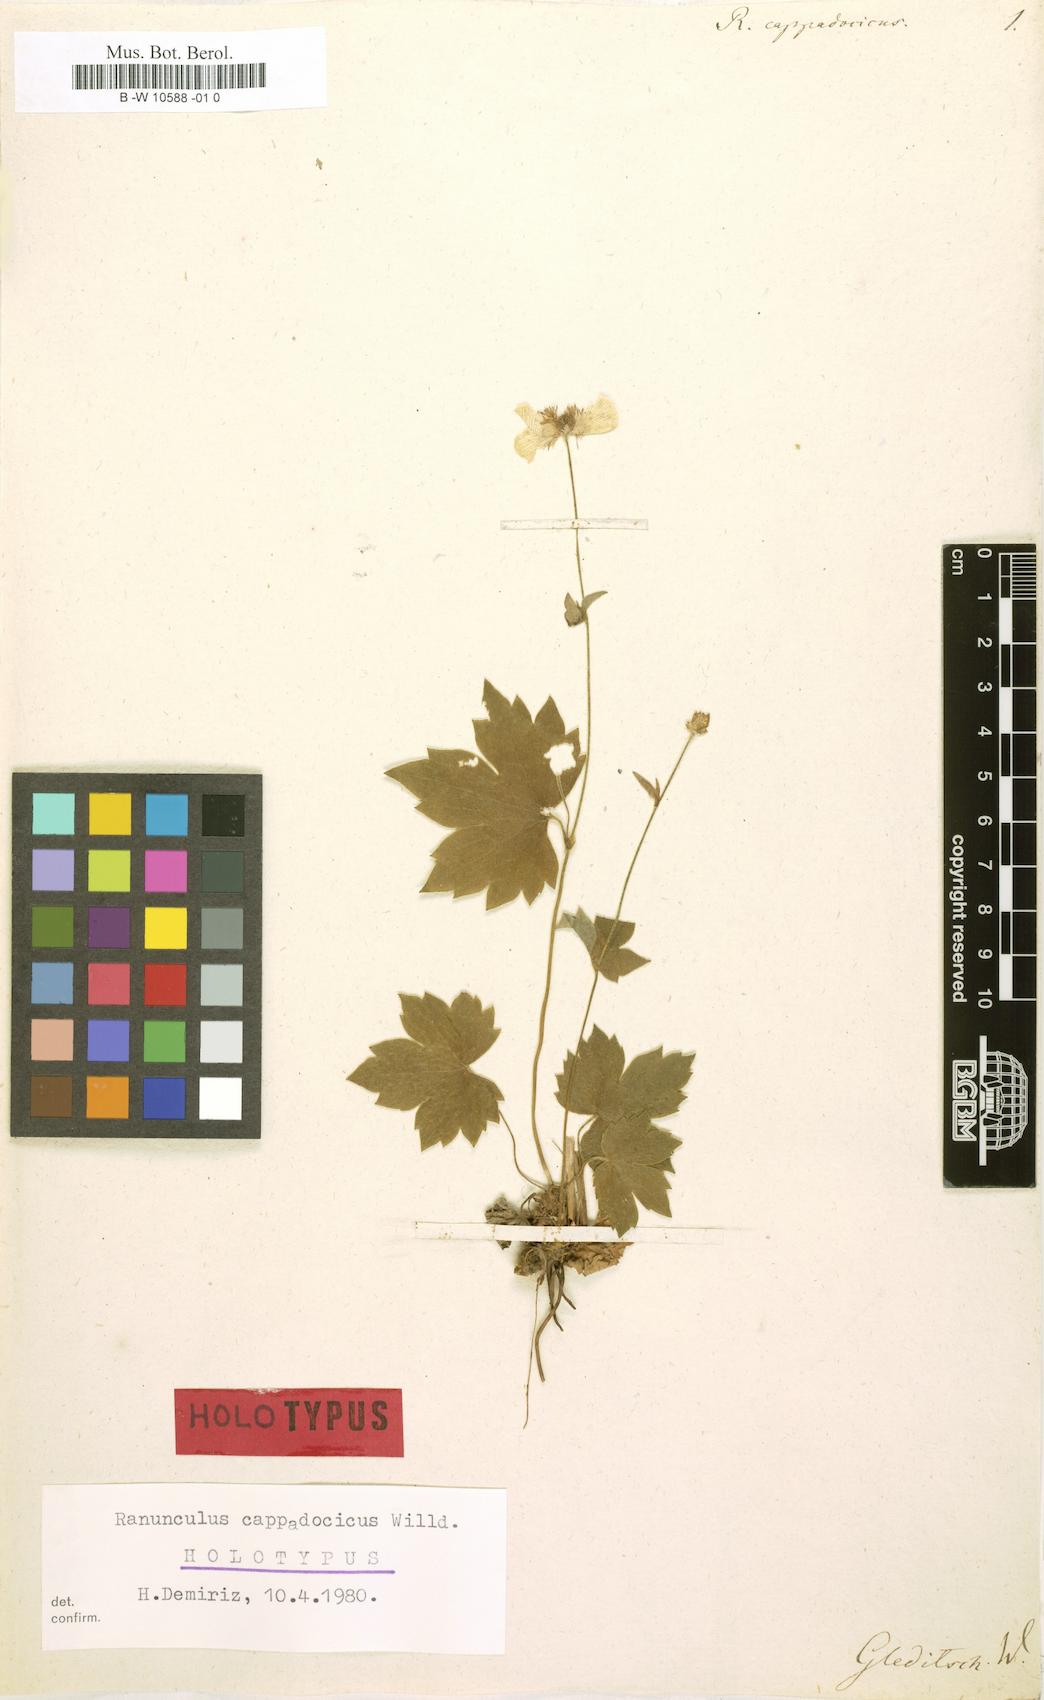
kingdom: Plantae
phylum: Tracheophyta
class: Magnoliopsida
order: Ranunculales
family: Ranunculaceae
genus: Ranunculus
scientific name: Ranunculus cappadocicus
